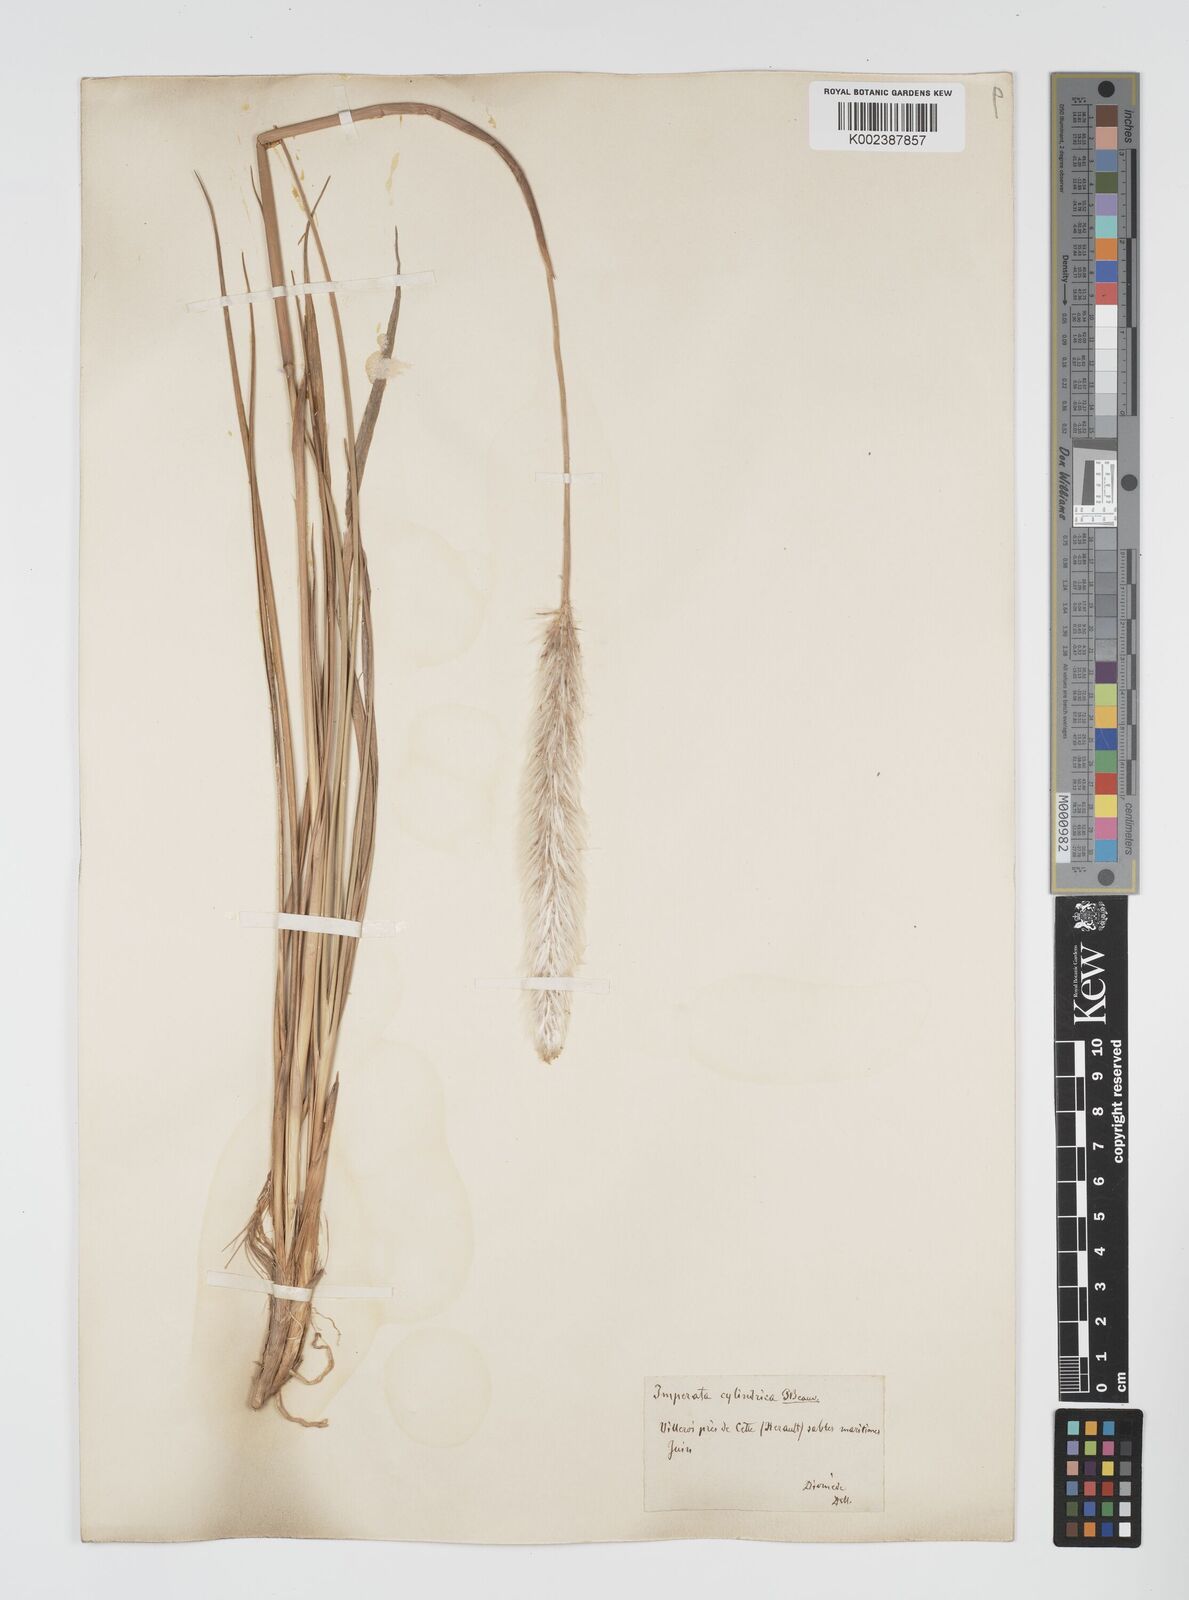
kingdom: Plantae
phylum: Tracheophyta
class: Liliopsida
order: Poales
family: Poaceae
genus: Imperata
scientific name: Imperata cylindrica
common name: Cogongrass
